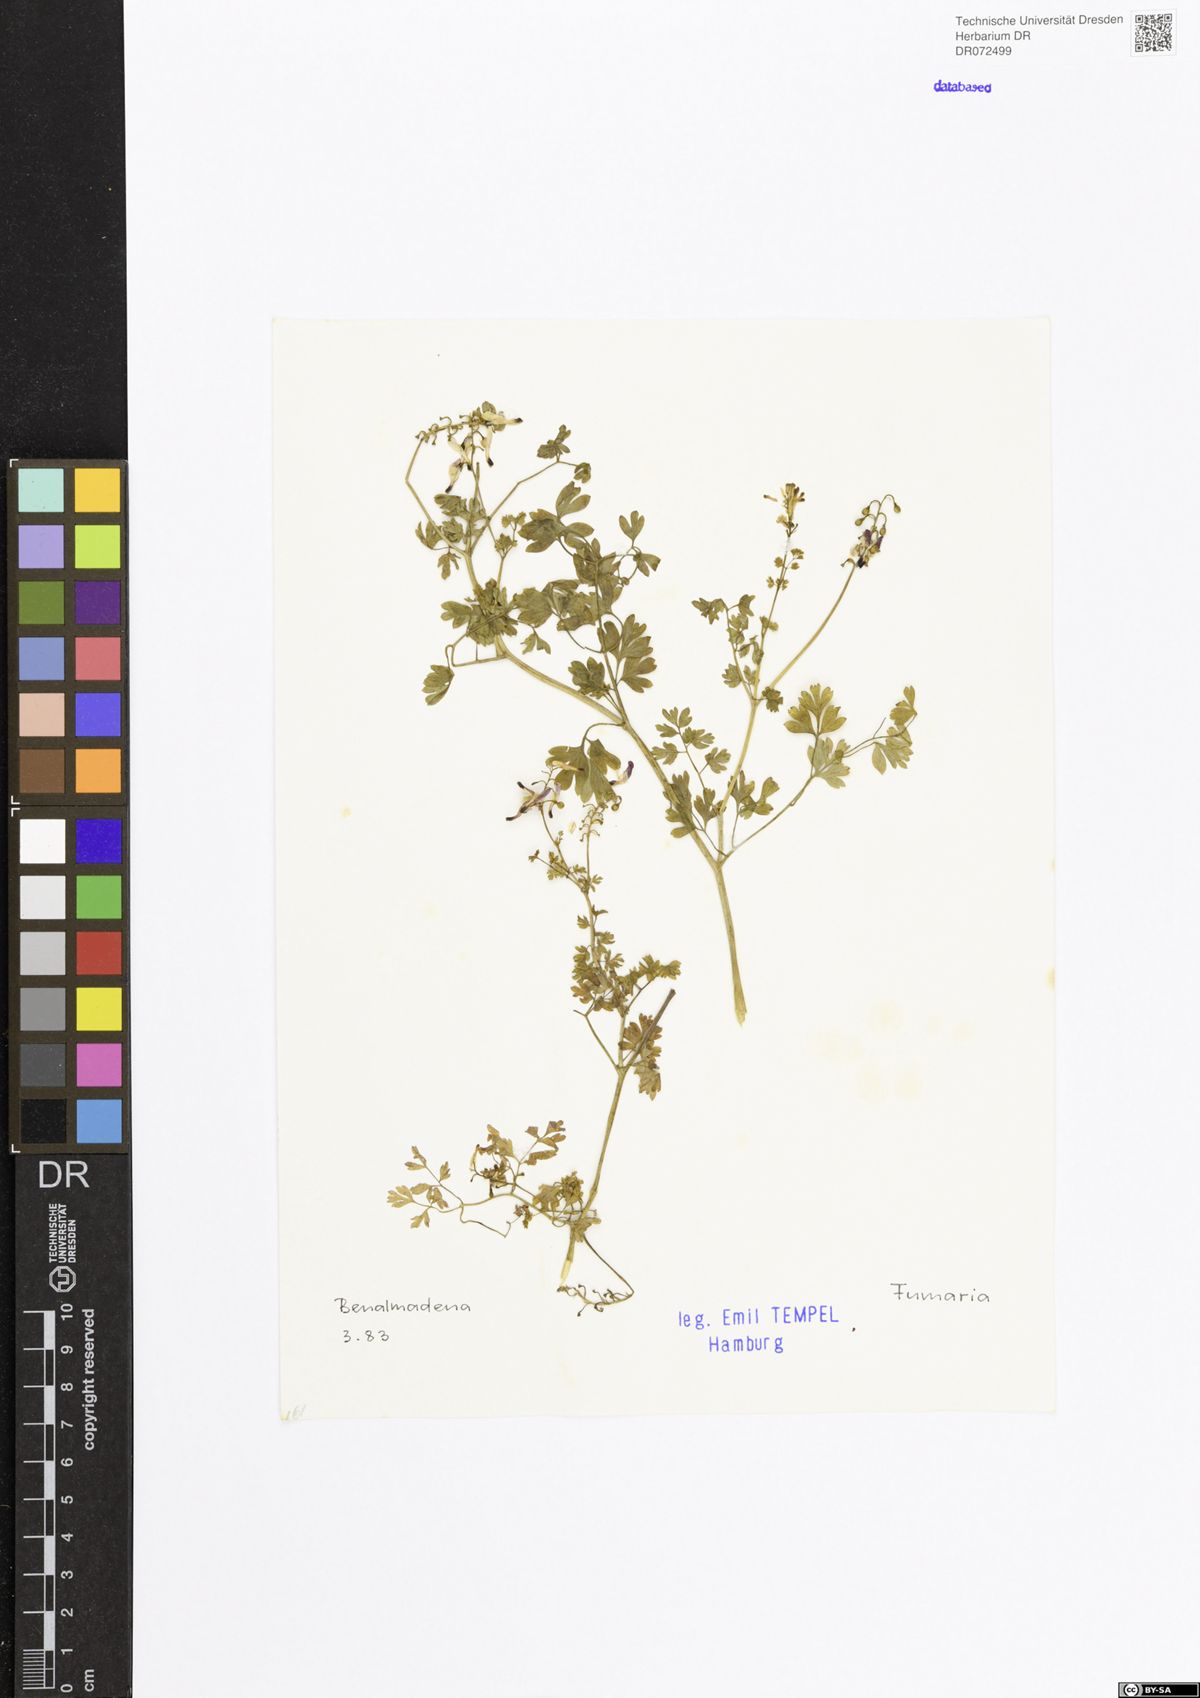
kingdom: Plantae
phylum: Tracheophyta
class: Magnoliopsida
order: Ranunculales
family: Papaveraceae
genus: Fumaria
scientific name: Fumaria
